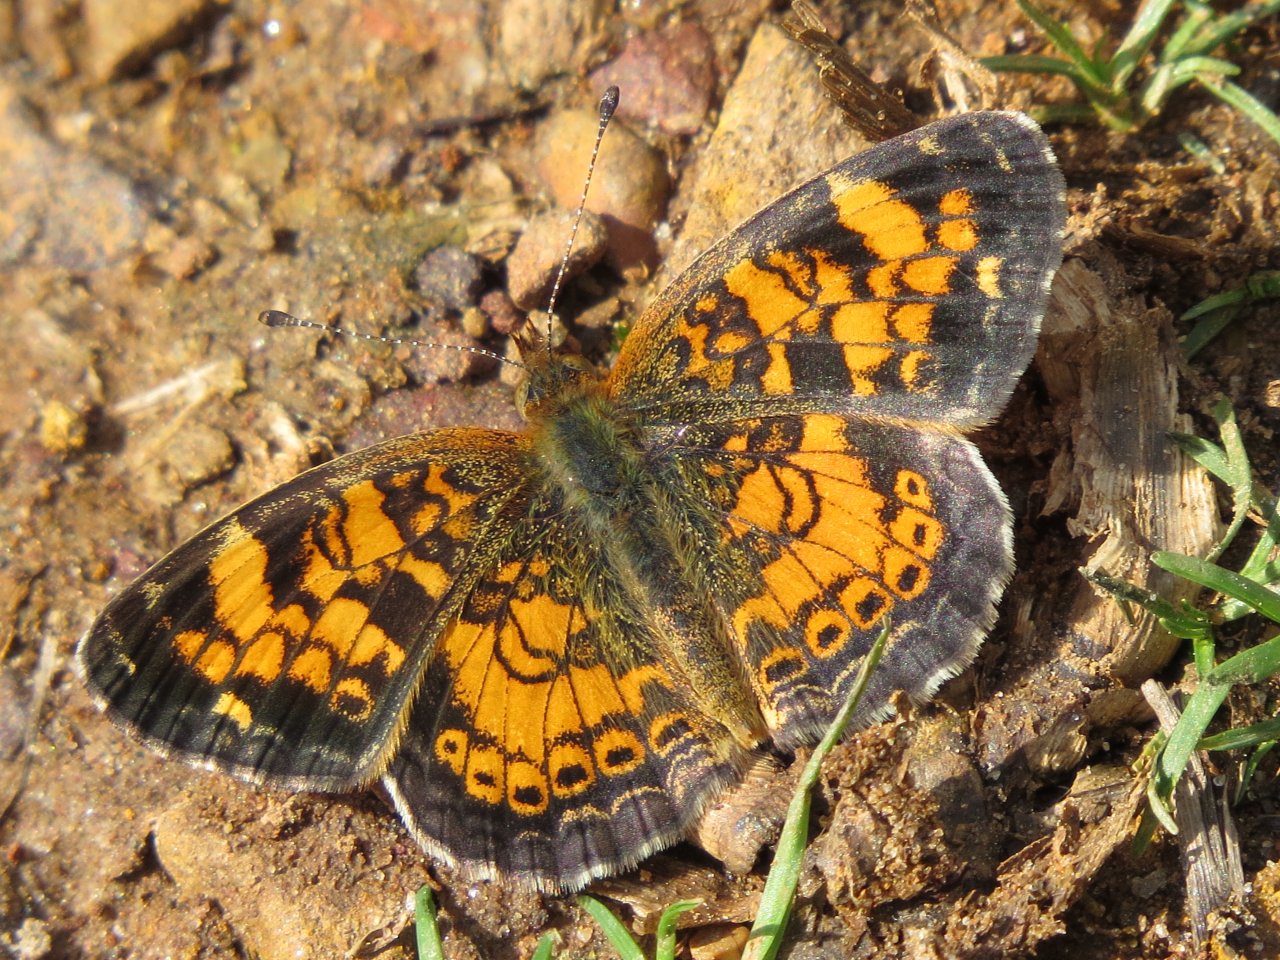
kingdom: Animalia
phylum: Arthropoda
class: Insecta
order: Lepidoptera
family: Nymphalidae
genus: Phyciodes
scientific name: Phyciodes tharos
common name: Pearl Crescent
